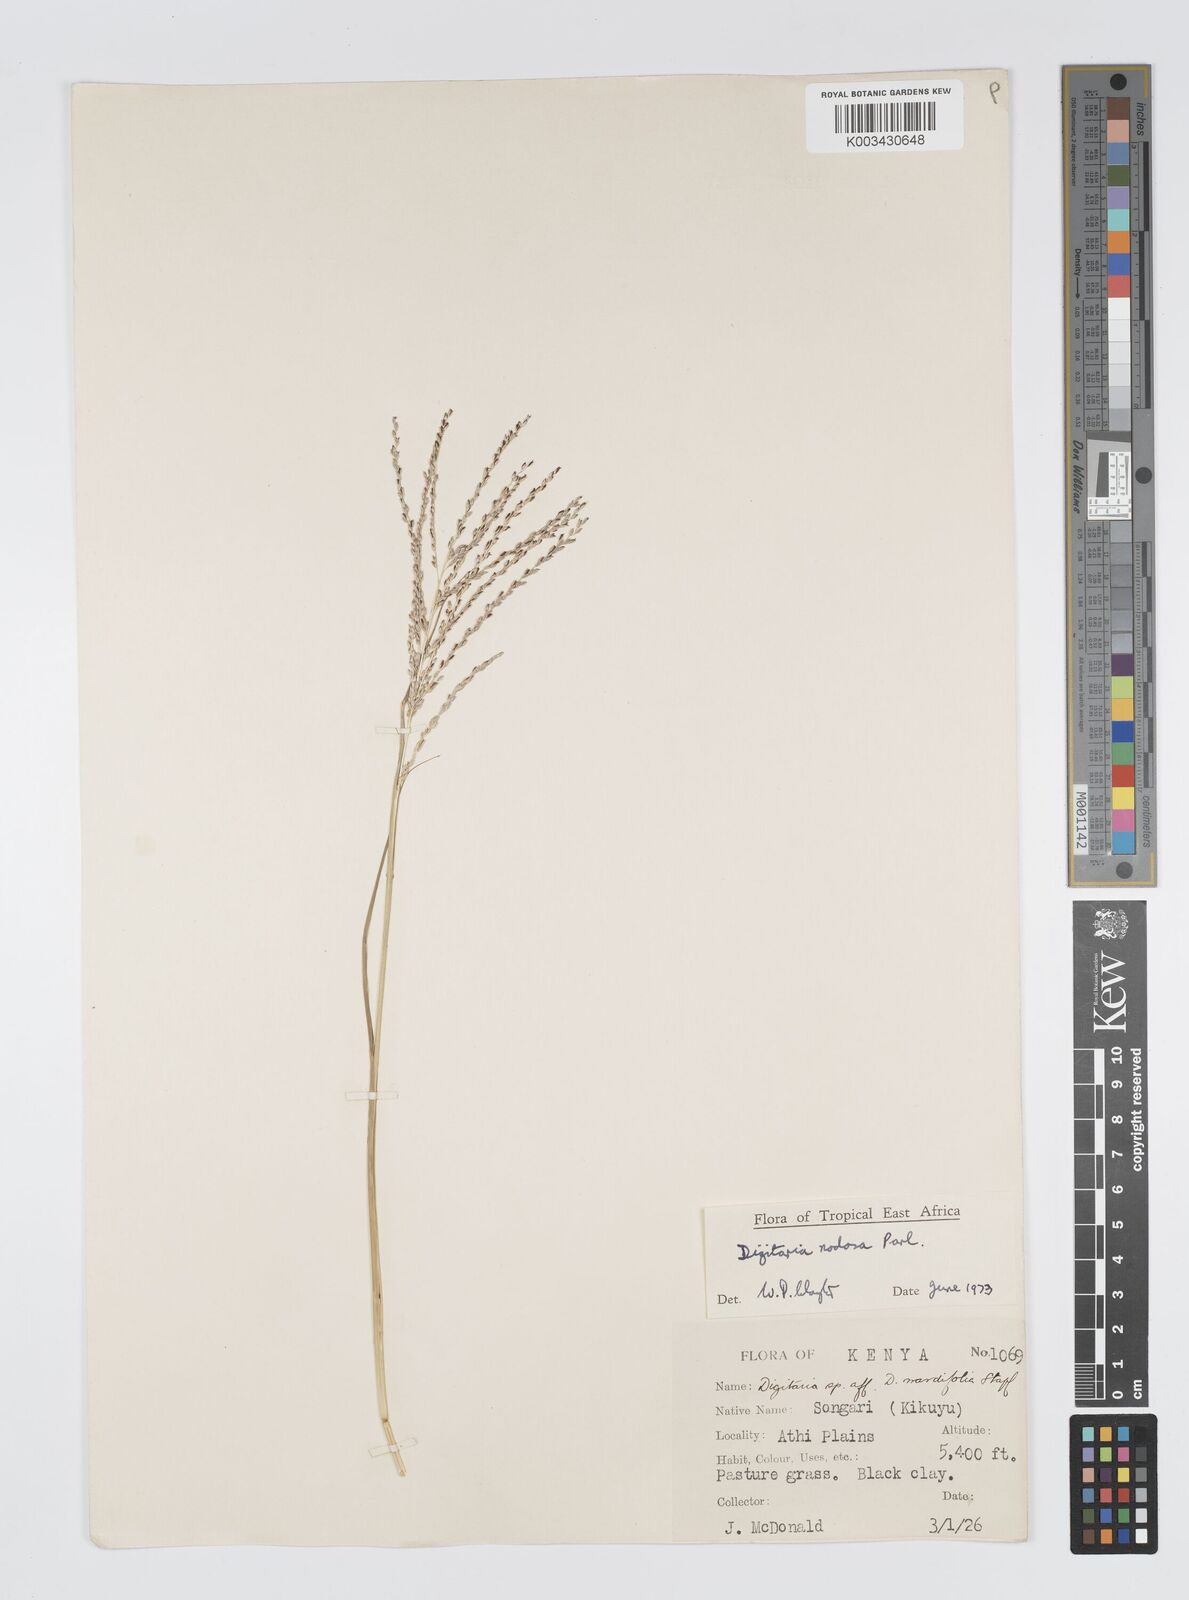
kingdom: Plantae
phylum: Tracheophyta
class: Liliopsida
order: Poales
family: Poaceae
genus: Digitaria
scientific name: Digitaria nodosa
